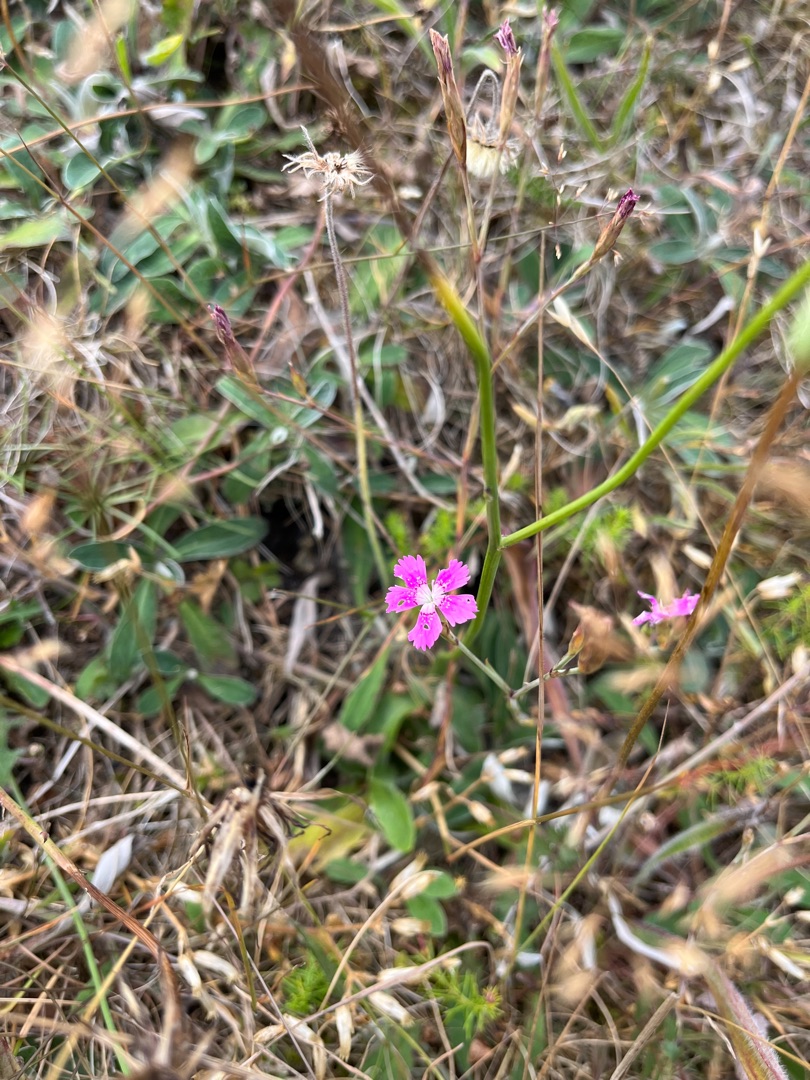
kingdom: Plantae
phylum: Tracheophyta
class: Magnoliopsida
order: Caryophyllales
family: Caryophyllaceae
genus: Dianthus
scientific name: Dianthus deltoides
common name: Bakke-nellike
